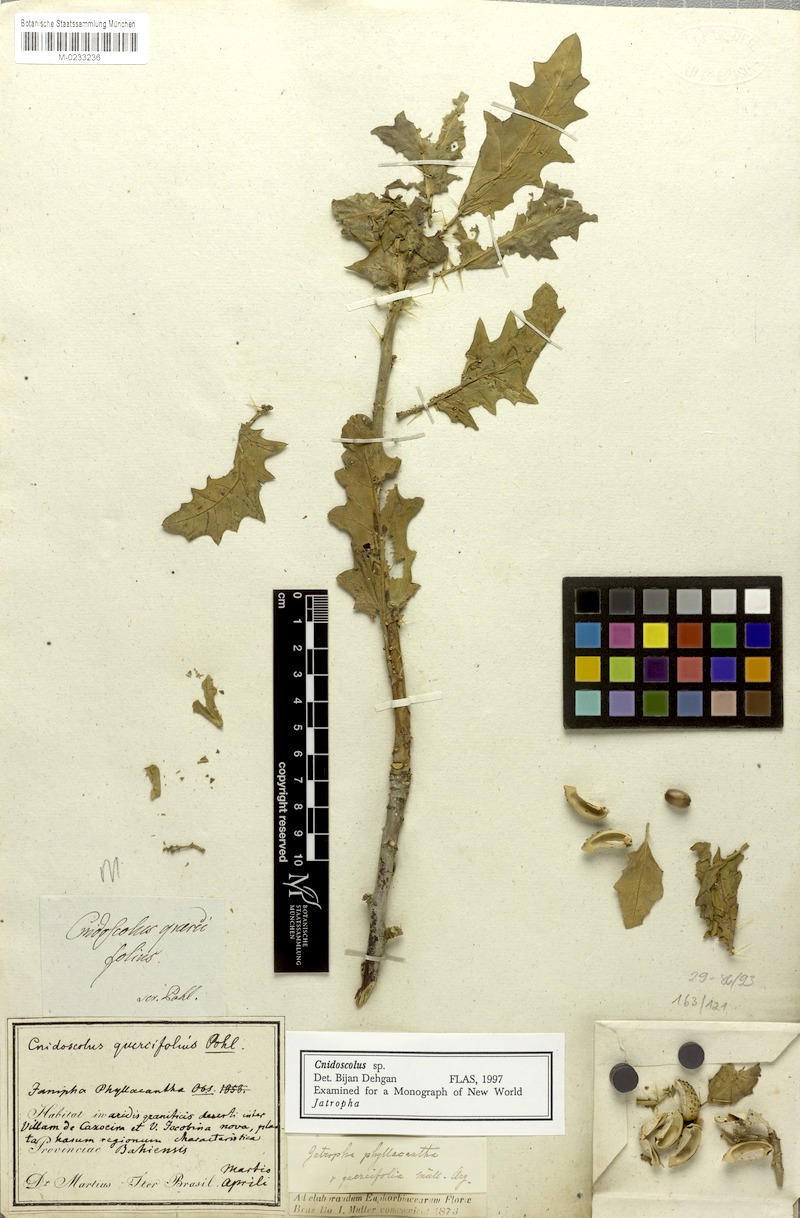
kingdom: Plantae
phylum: Tracheophyta
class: Magnoliopsida
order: Malpighiales
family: Euphorbiaceae
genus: Cnidoscolus
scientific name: Cnidoscolus quercifolius
